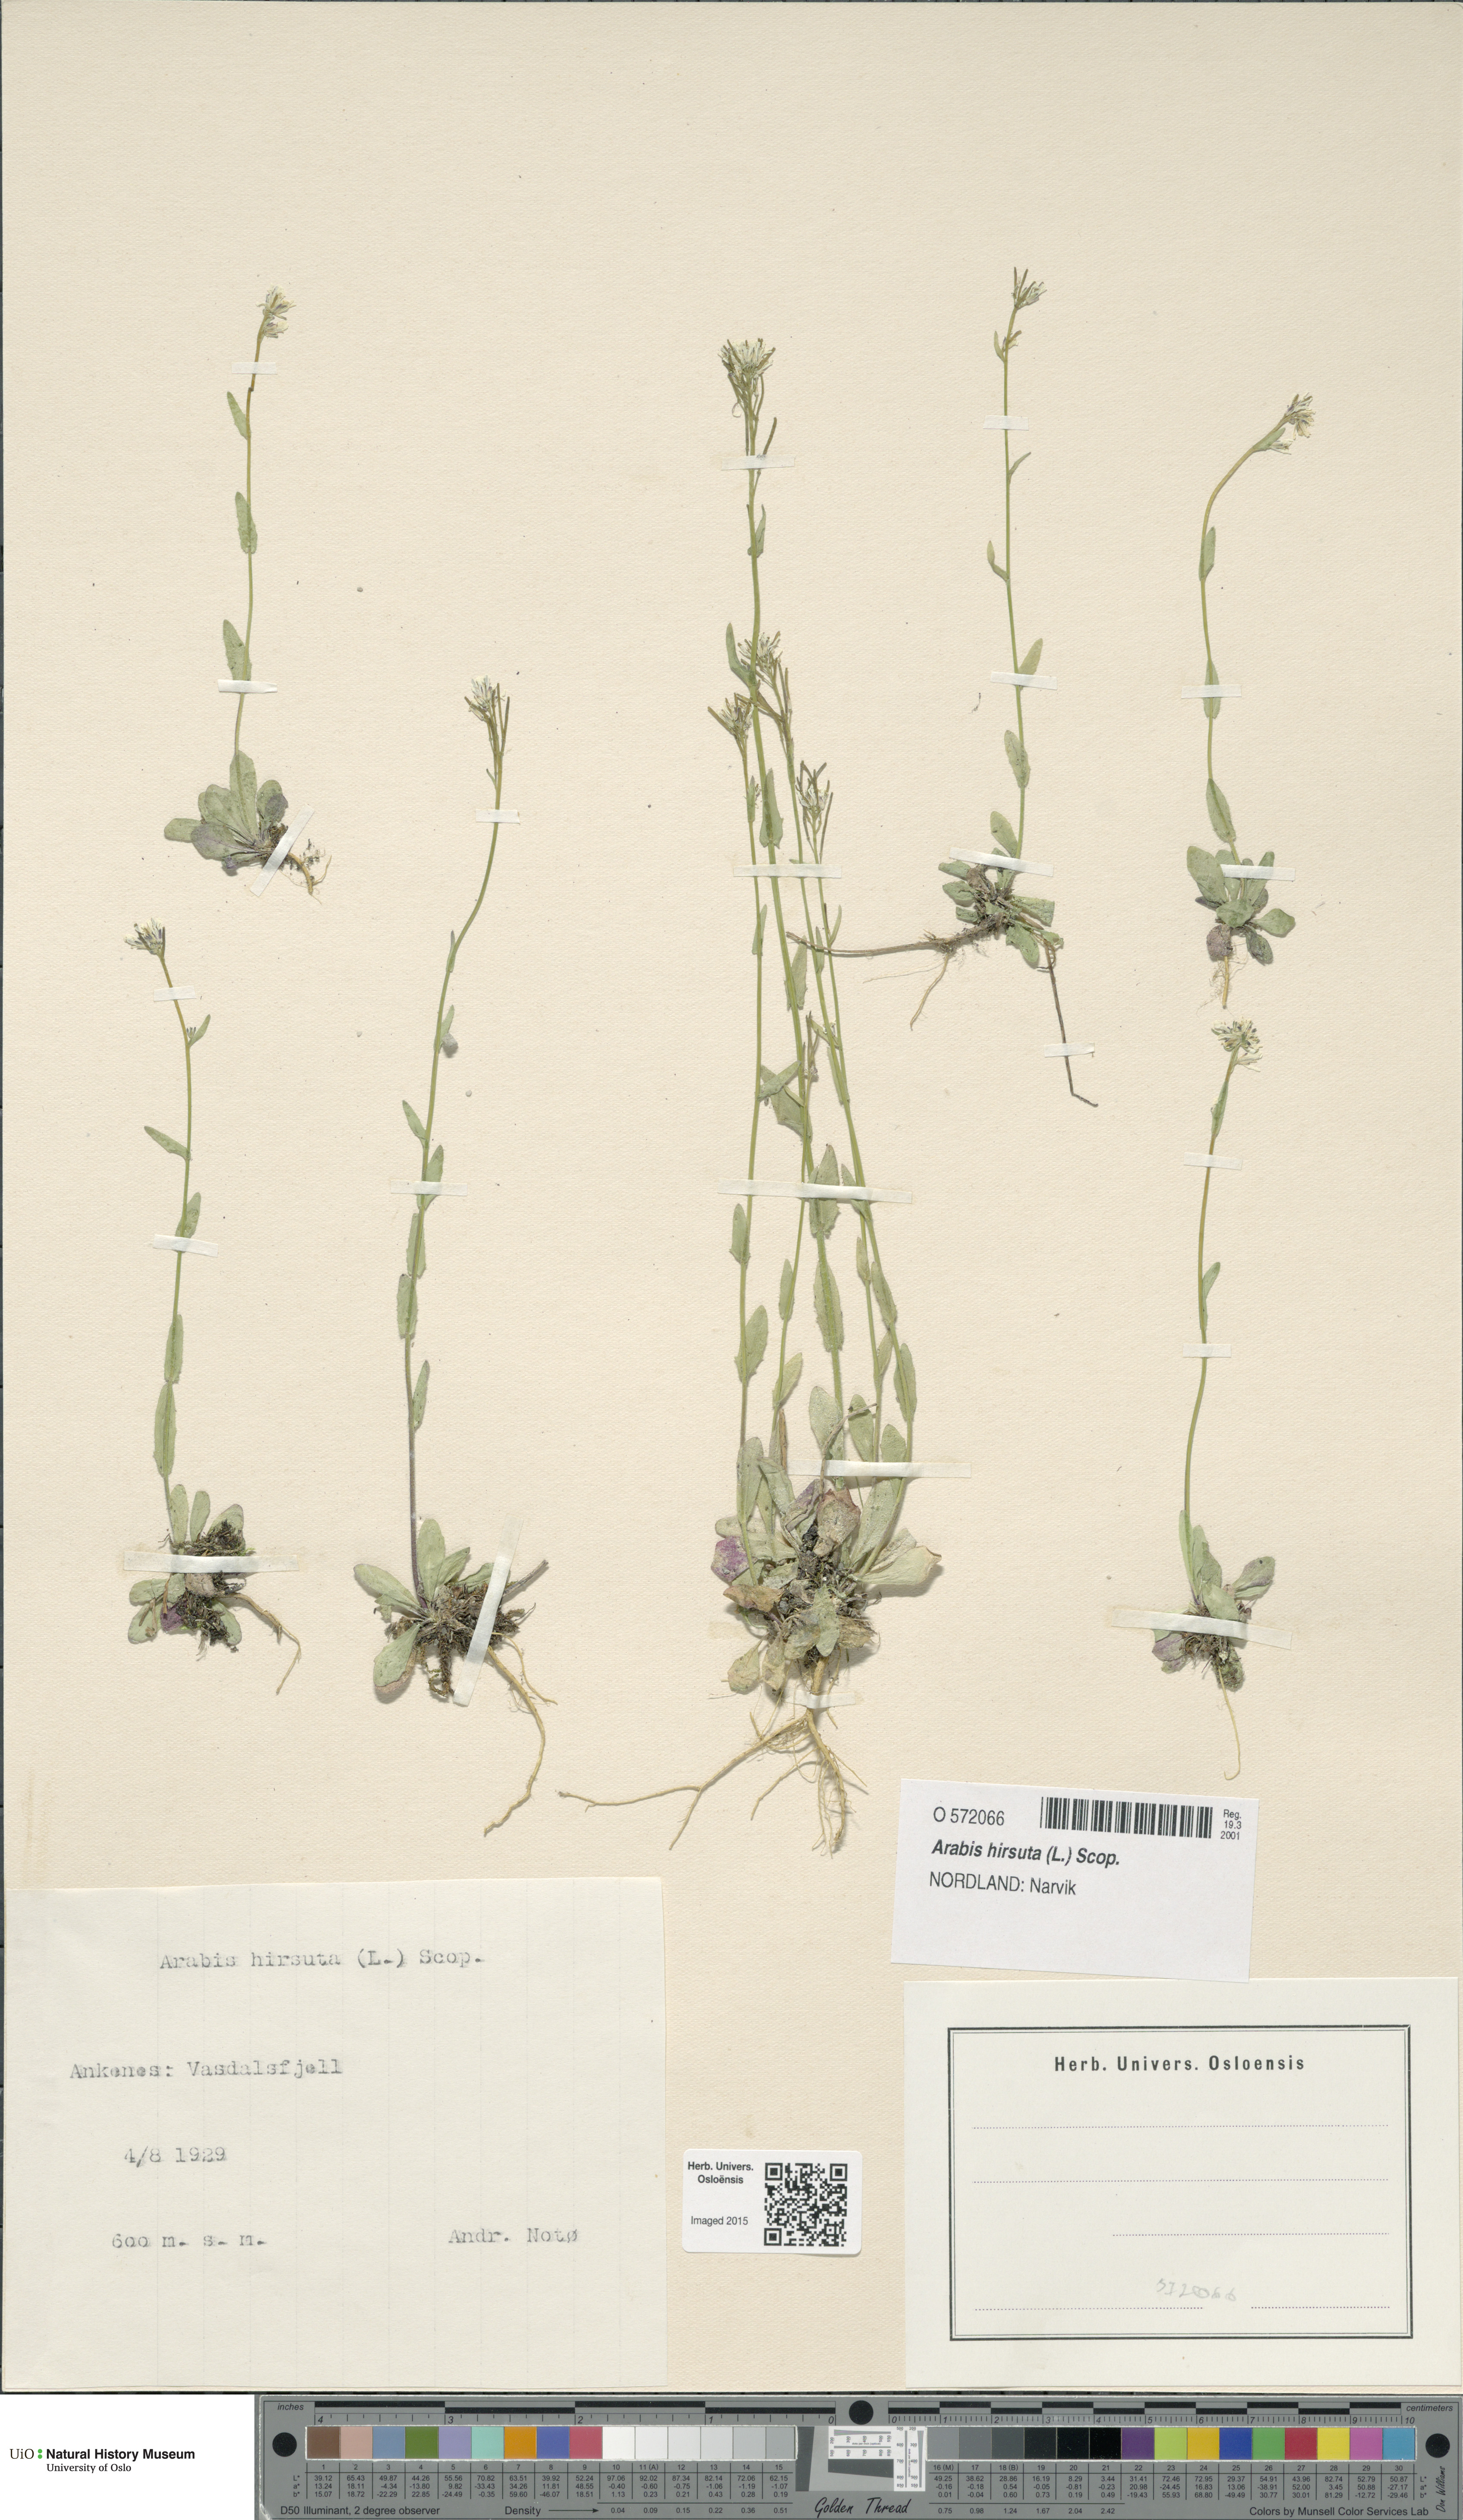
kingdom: Plantae
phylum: Tracheophyta
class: Magnoliopsida
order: Brassicales
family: Brassicaceae
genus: Arabis
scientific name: Arabis hirsuta
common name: Hairy rock-cress
